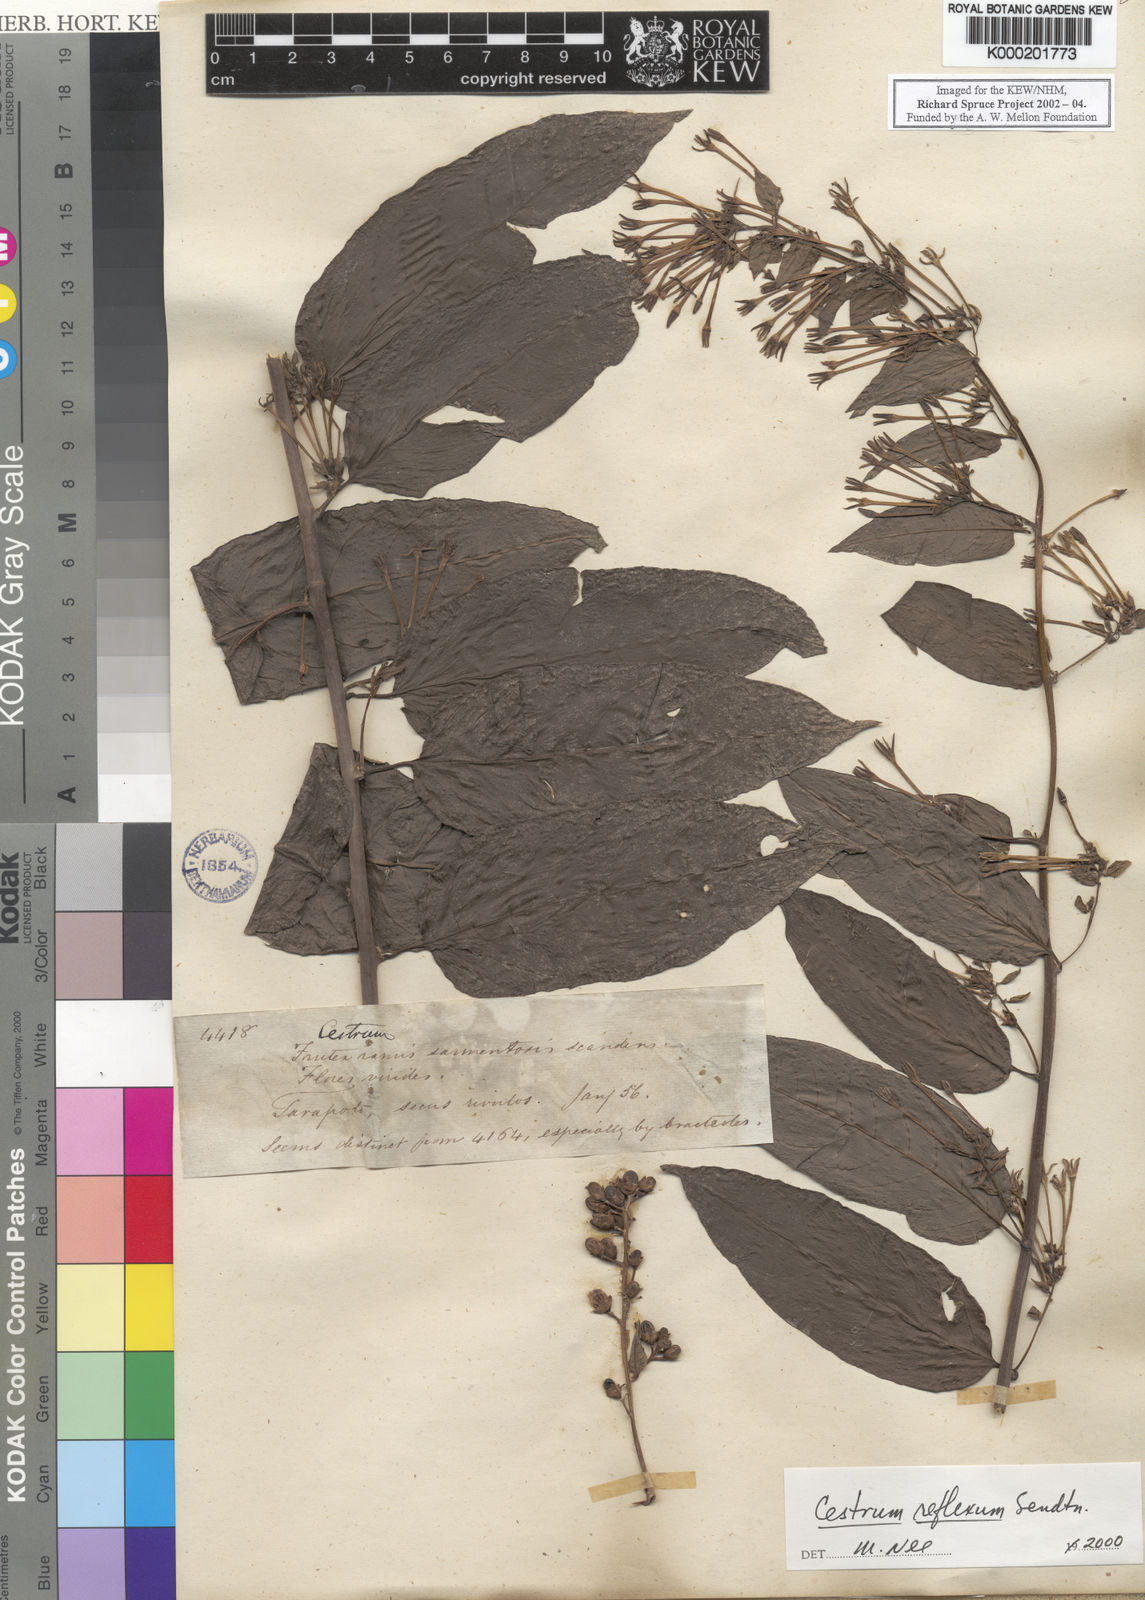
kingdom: Plantae
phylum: Tracheophyta
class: Magnoliopsida
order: Solanales
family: Solanaceae
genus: Cestrum
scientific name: Cestrum reflexum
